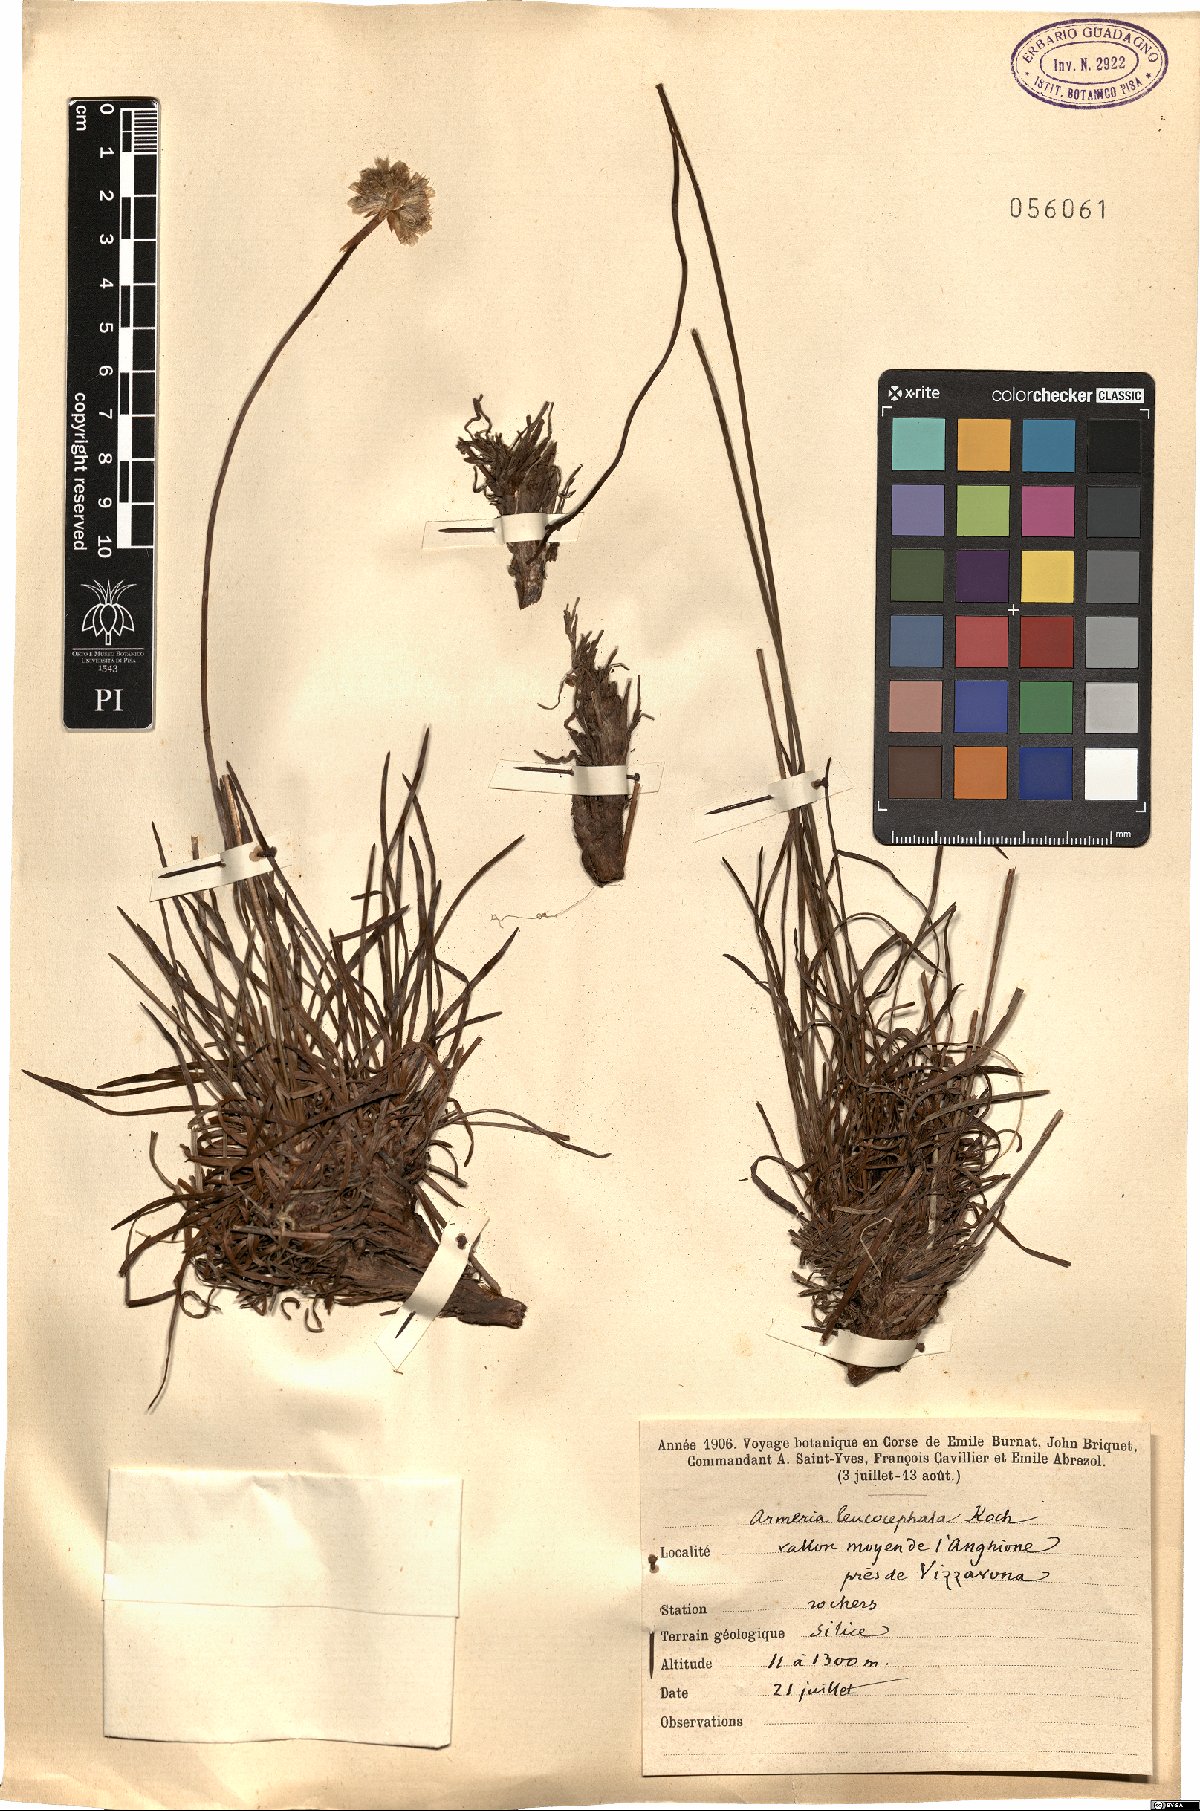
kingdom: Plantae
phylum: Tracheophyta
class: Magnoliopsida
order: Caryophyllales
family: Plumbaginaceae
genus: Armeria
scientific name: Armeria multiceps
